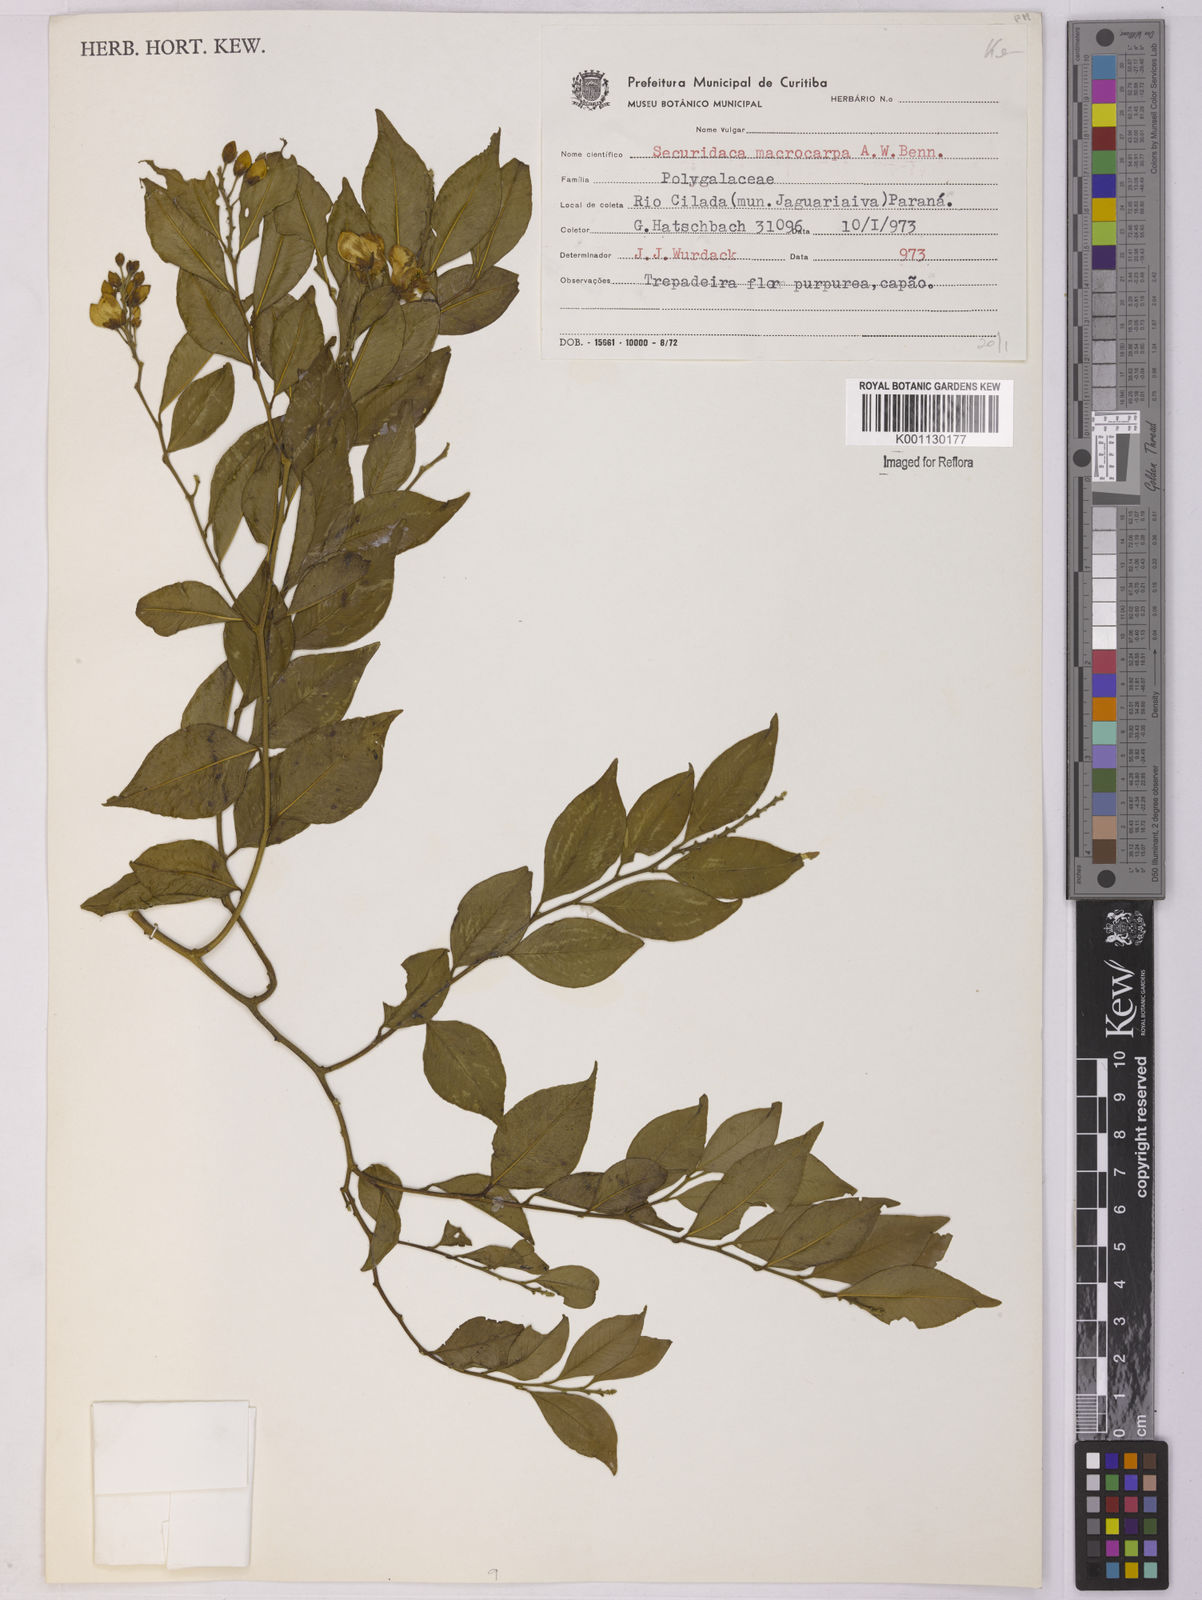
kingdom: Plantae
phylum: Tracheophyta
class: Magnoliopsida
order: Fabales
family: Polygalaceae
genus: Securidaca
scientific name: Securidaca macrocarpa
